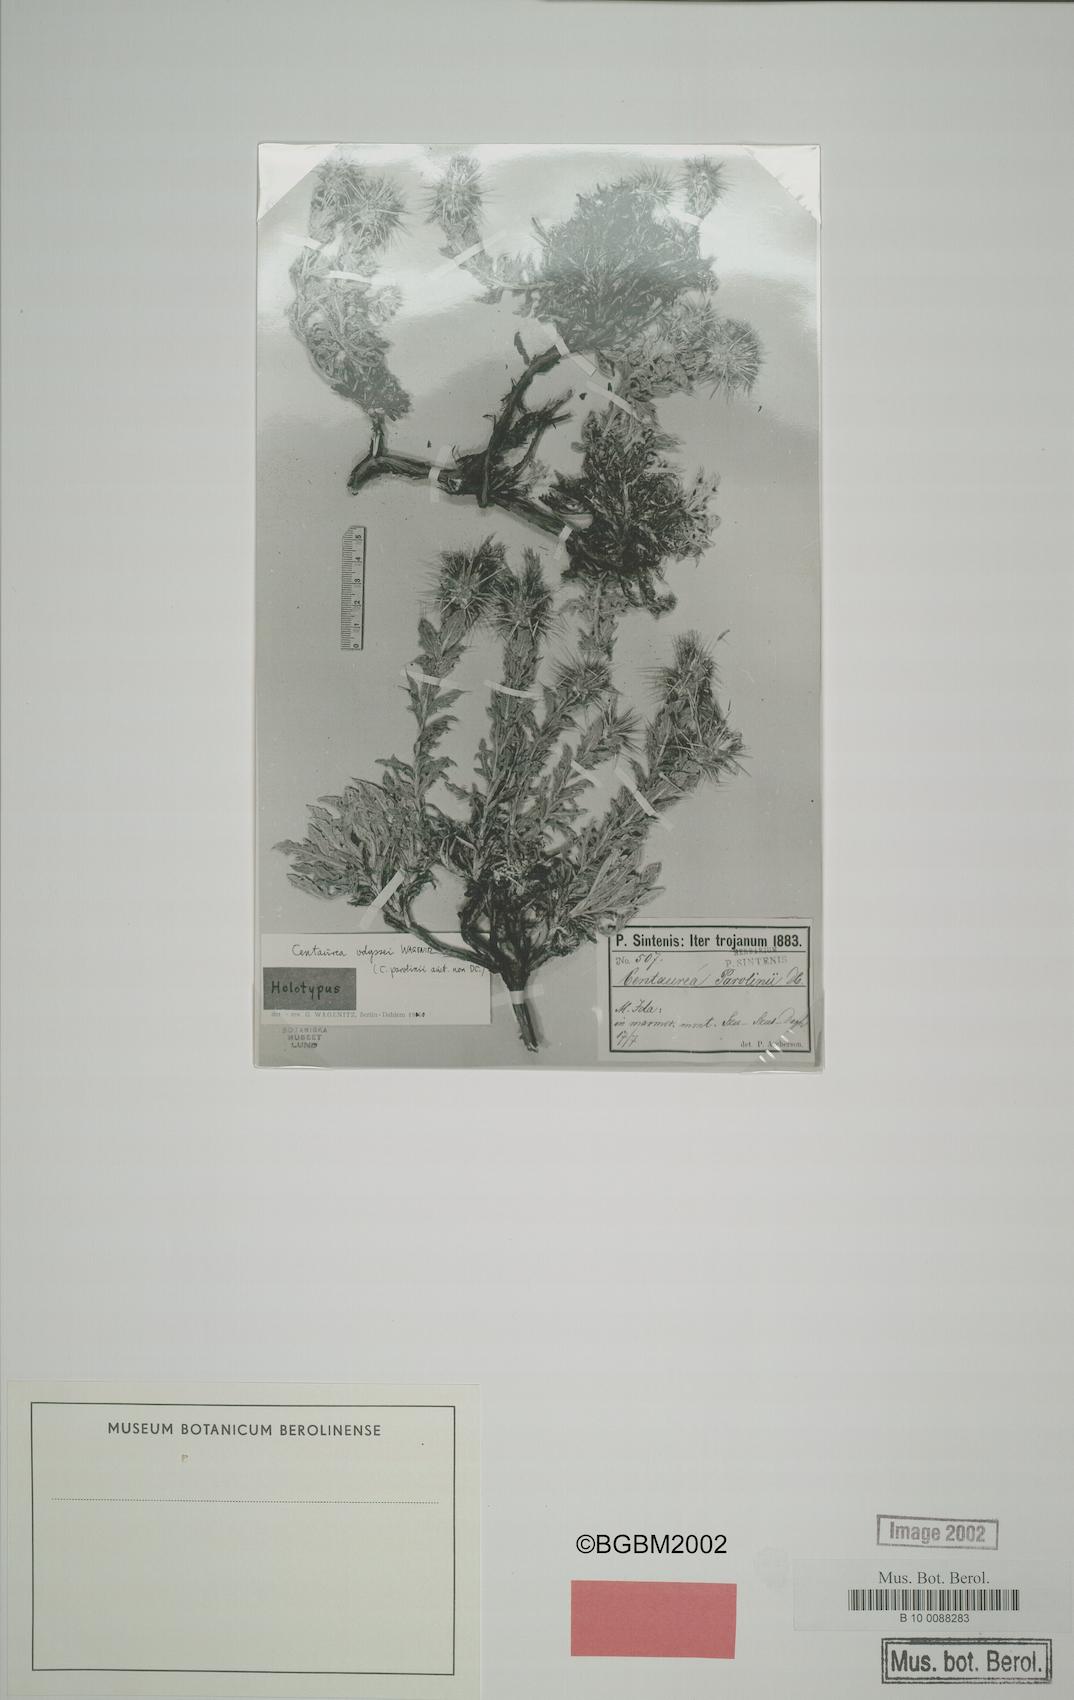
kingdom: Plantae
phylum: Tracheophyta
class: Magnoliopsida
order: Asterales
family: Asteraceae
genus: Centaurea
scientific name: Centaurea odyssei
